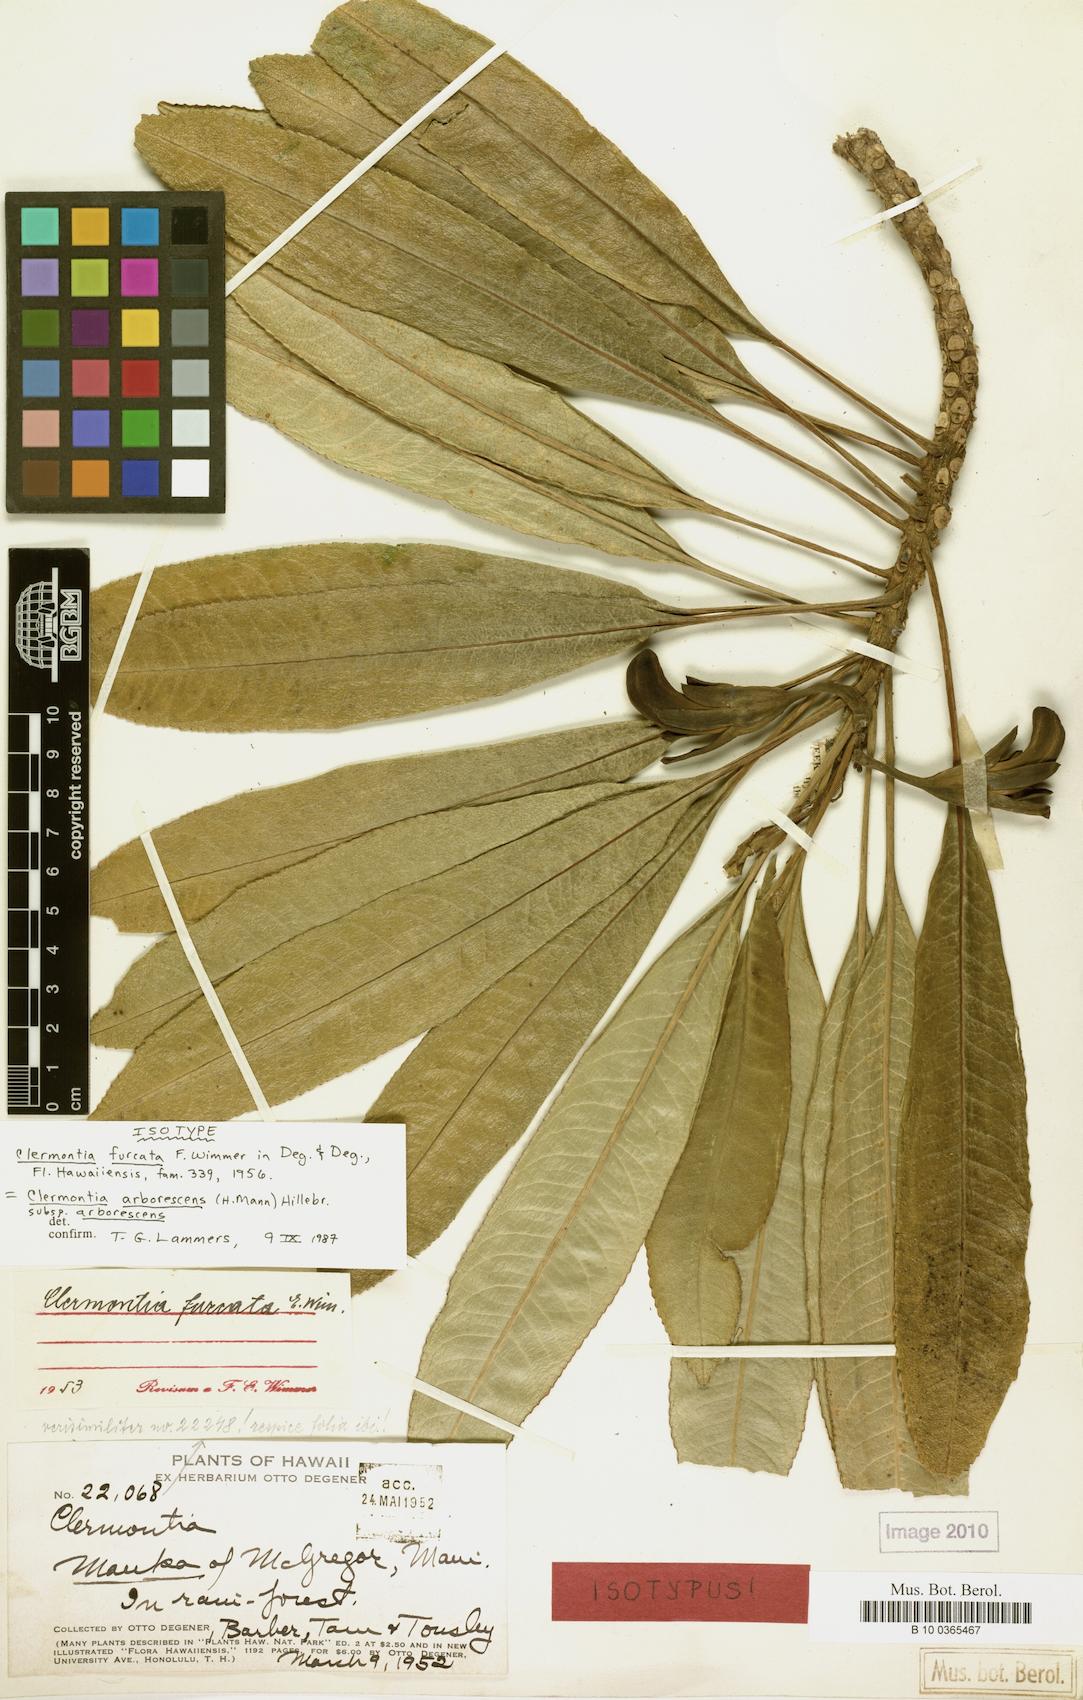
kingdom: Plantae
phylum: Tracheophyta
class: Magnoliopsida
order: Asterales
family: Campanulaceae
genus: Clermontia
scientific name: Clermontia arborescens
